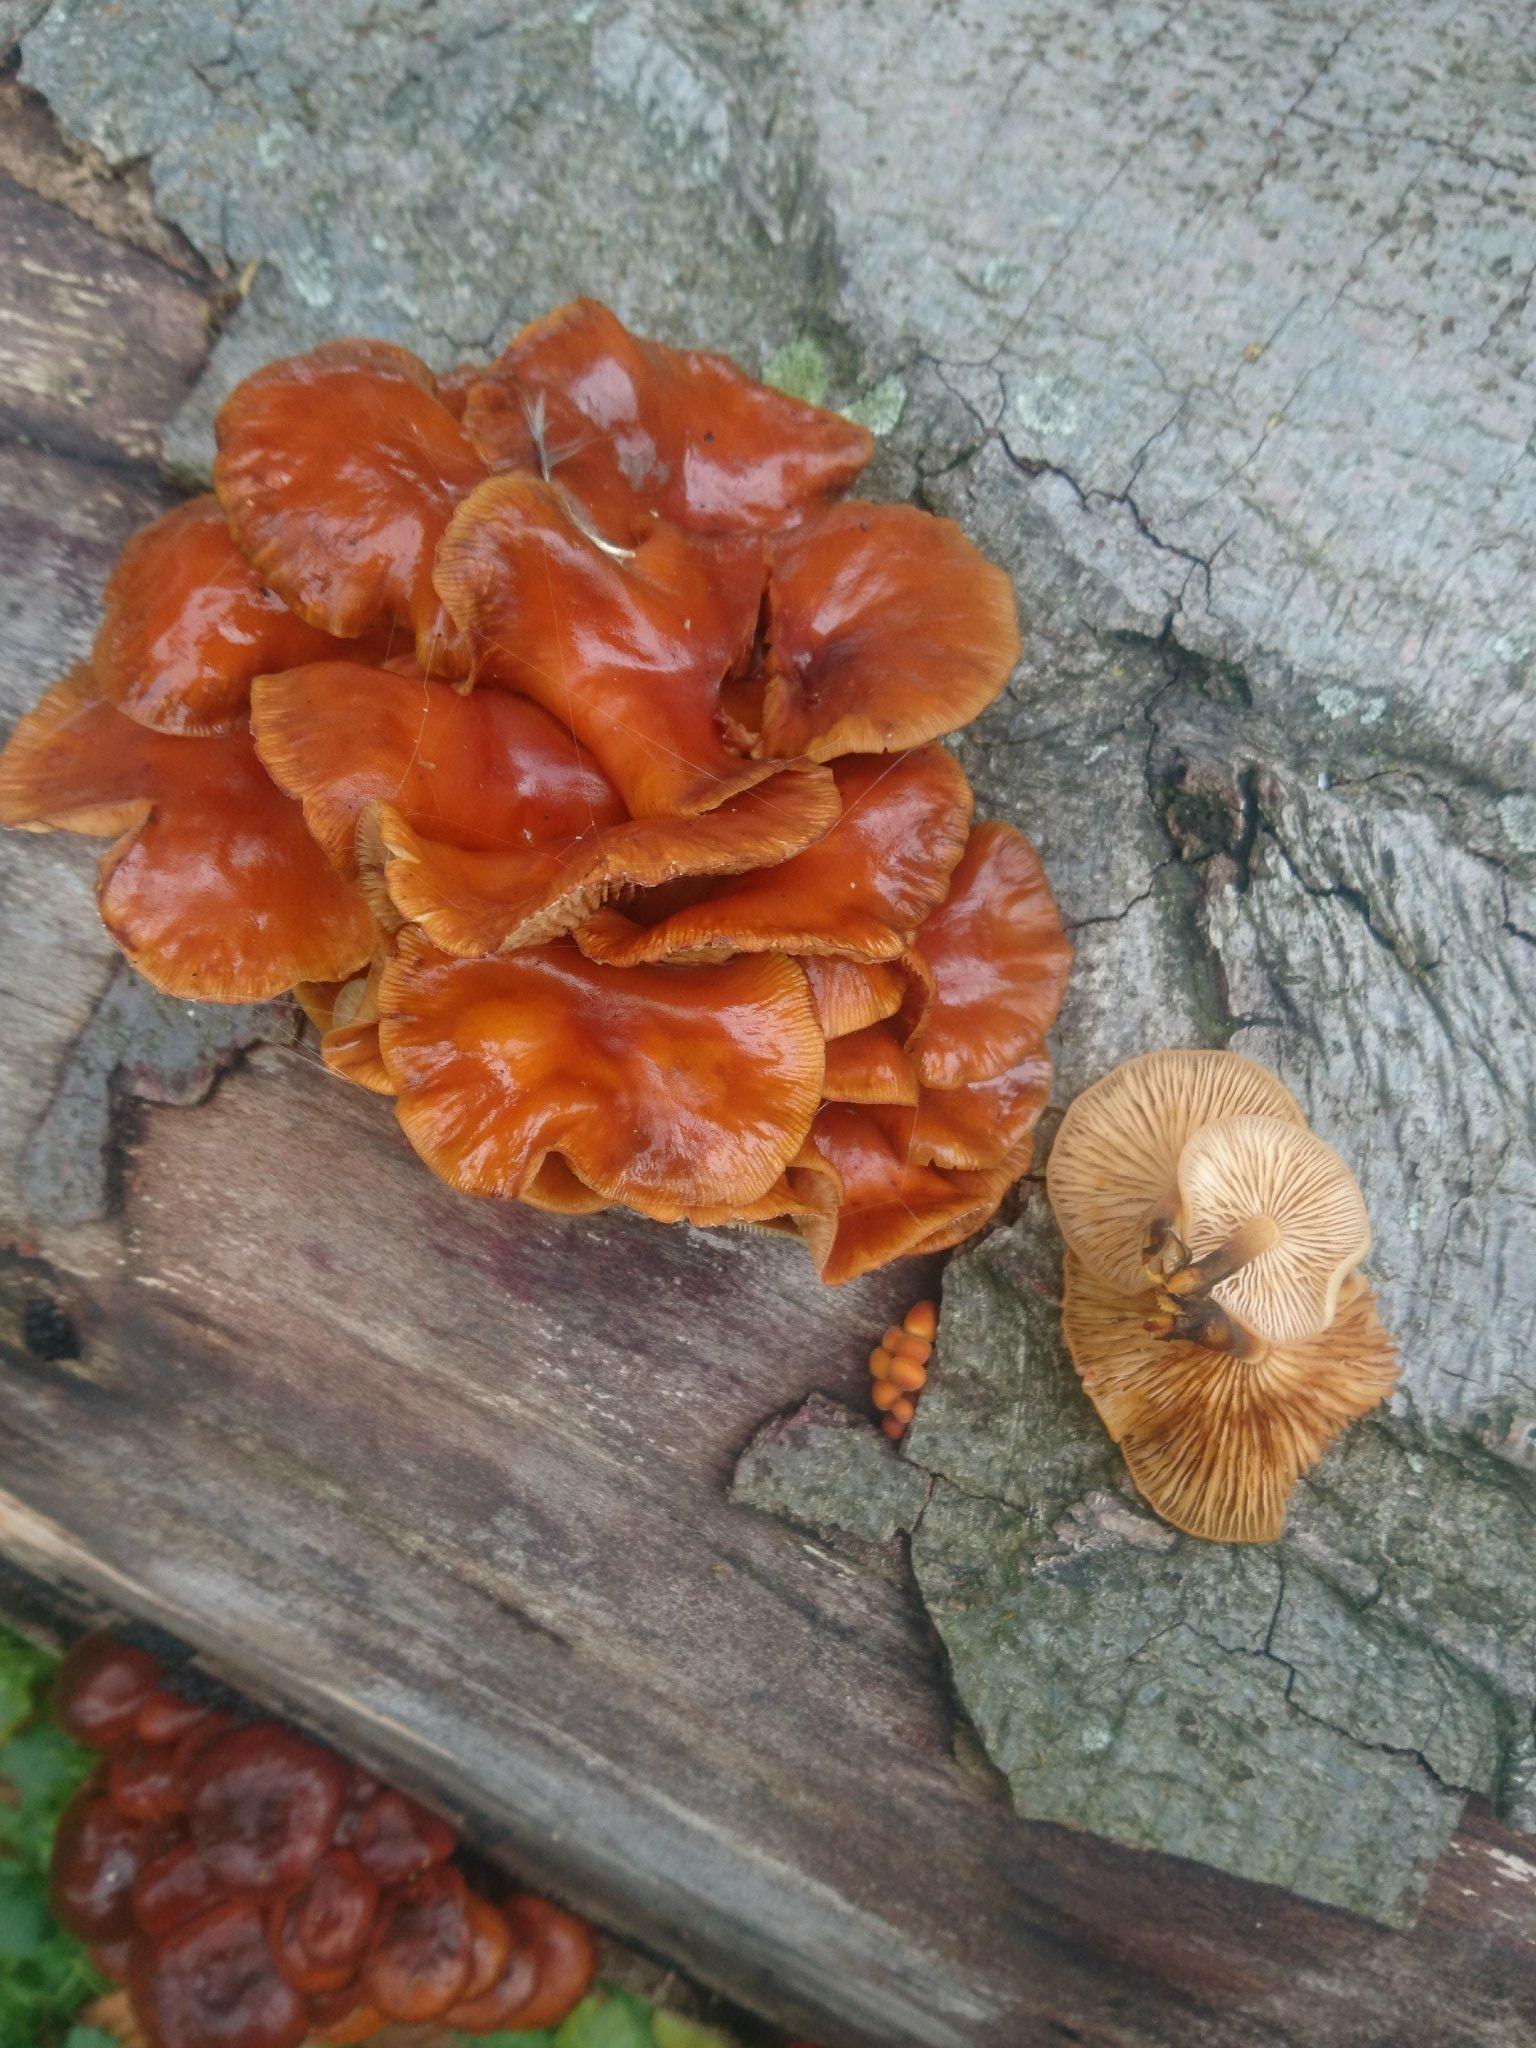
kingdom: Fungi
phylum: Basidiomycota
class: Agaricomycetes
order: Agaricales
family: Physalacriaceae
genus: Flammulina
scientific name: Flammulina velutipes
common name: gul fløjlsfod
